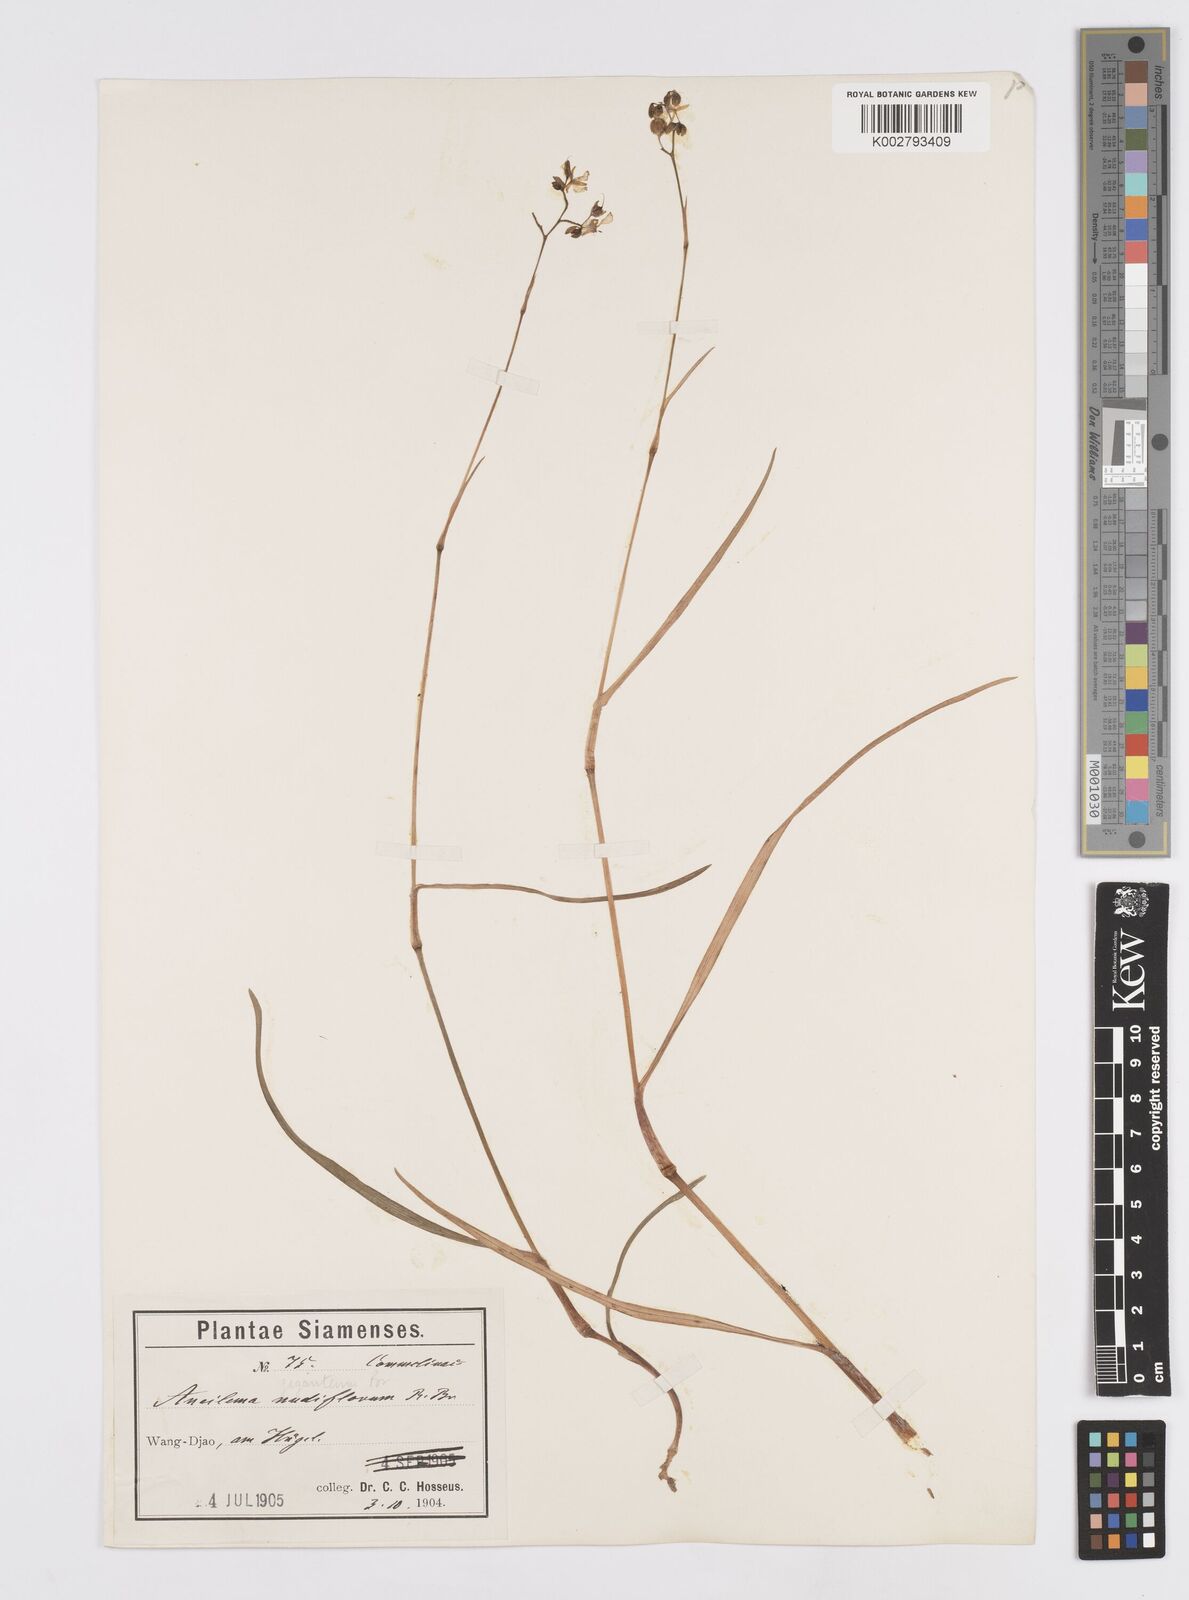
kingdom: Plantae
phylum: Tracheophyta
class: Liliopsida
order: Commelinales
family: Commelinaceae
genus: Murdannia
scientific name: Murdannia gigantea
